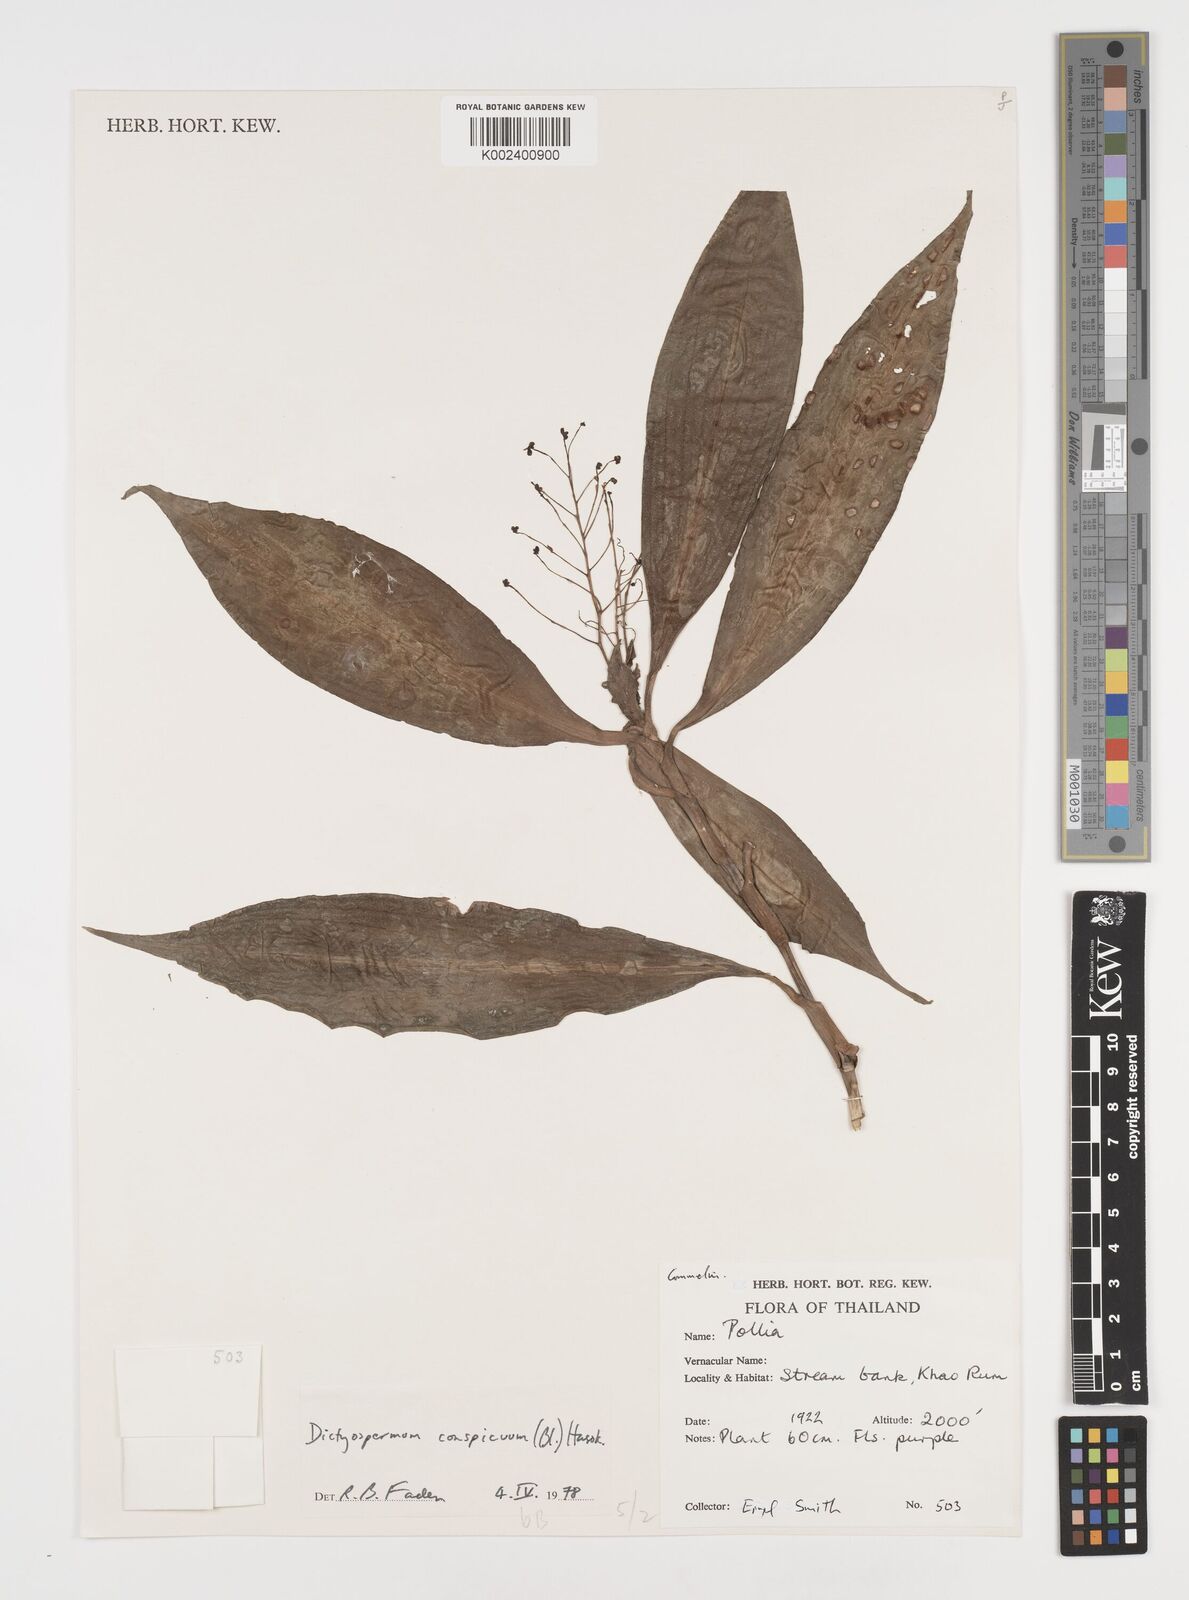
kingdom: Plantae
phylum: Tracheophyta
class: Liliopsida
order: Commelinales
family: Commelinaceae
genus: Dictyospermum
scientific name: Dictyospermum conspicuum
